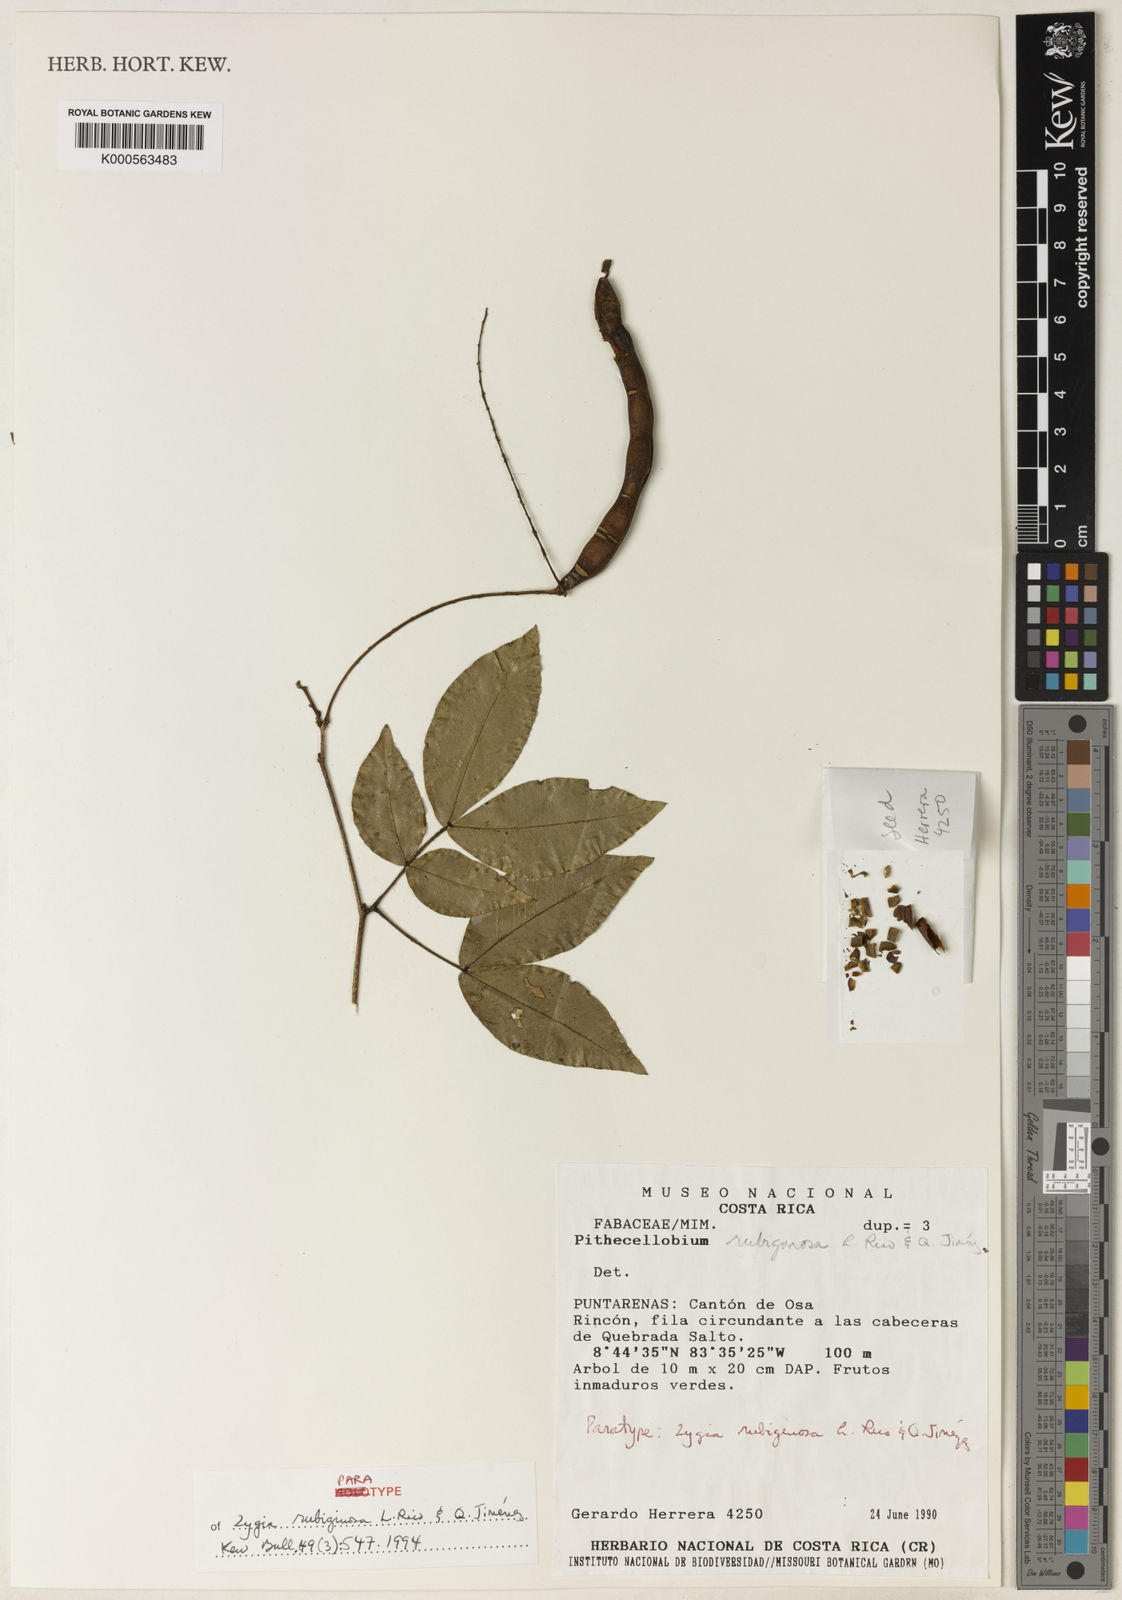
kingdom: Plantae
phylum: Tracheophyta
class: Magnoliopsida
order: Fabales
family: Fabaceae
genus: Zygia
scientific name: Zygia
